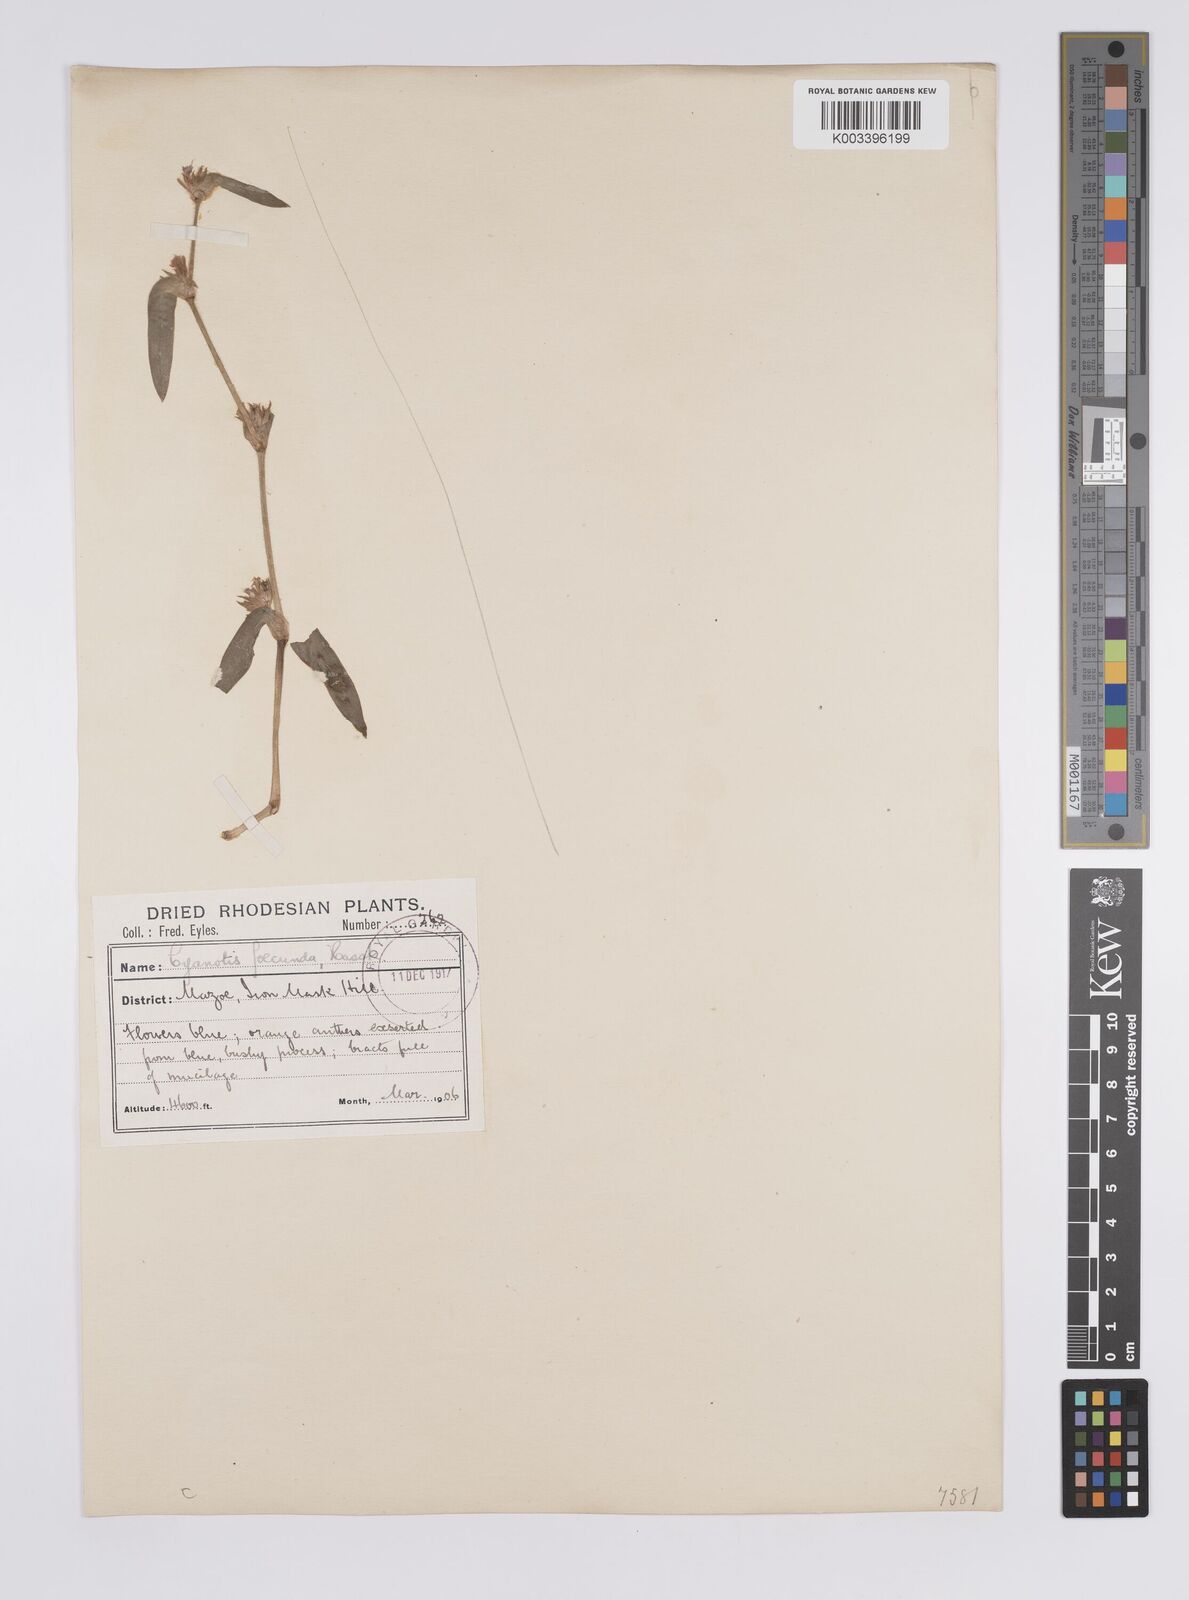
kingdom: Plantae
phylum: Tracheophyta
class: Liliopsida
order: Commelinales
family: Commelinaceae
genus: Cyanotis
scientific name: Cyanotis foecunda
